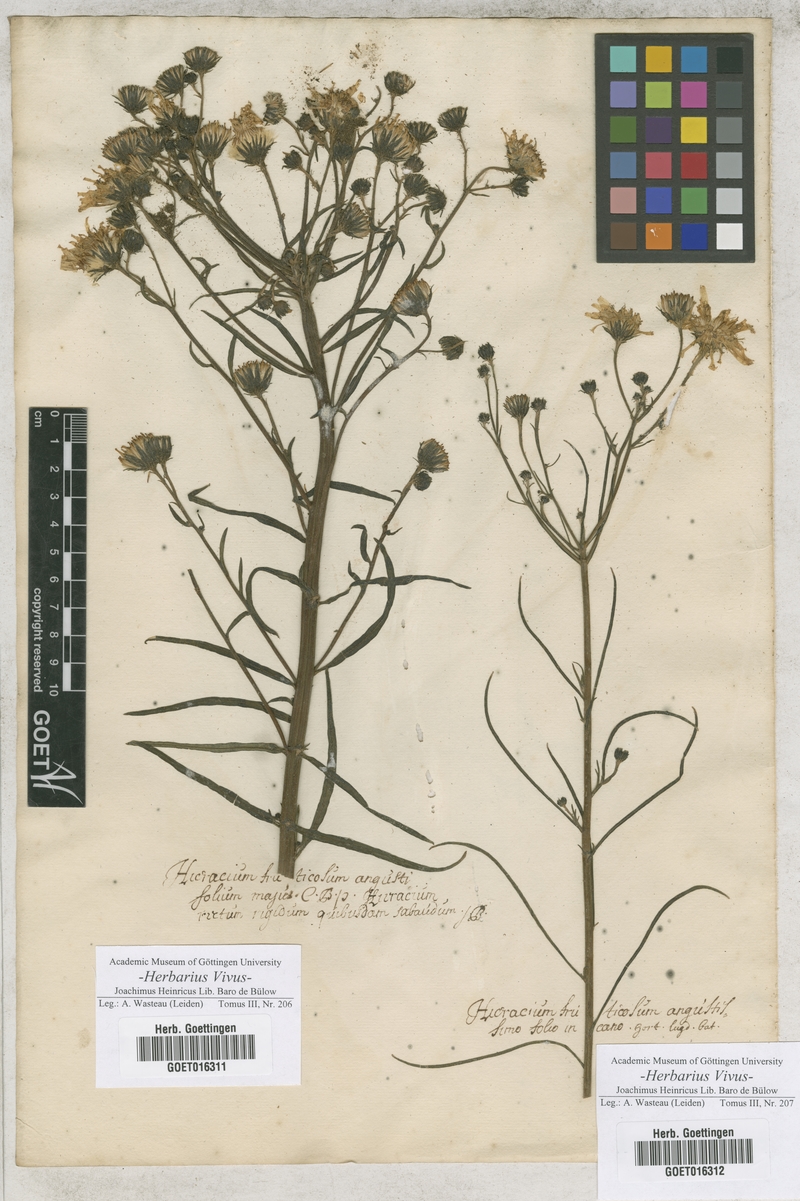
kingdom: Plantae
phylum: Tracheophyta
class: Magnoliopsida
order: Asterales
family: Asteraceae
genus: Hieracium
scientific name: Hieracium umbellatum
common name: Northern hawkweed
